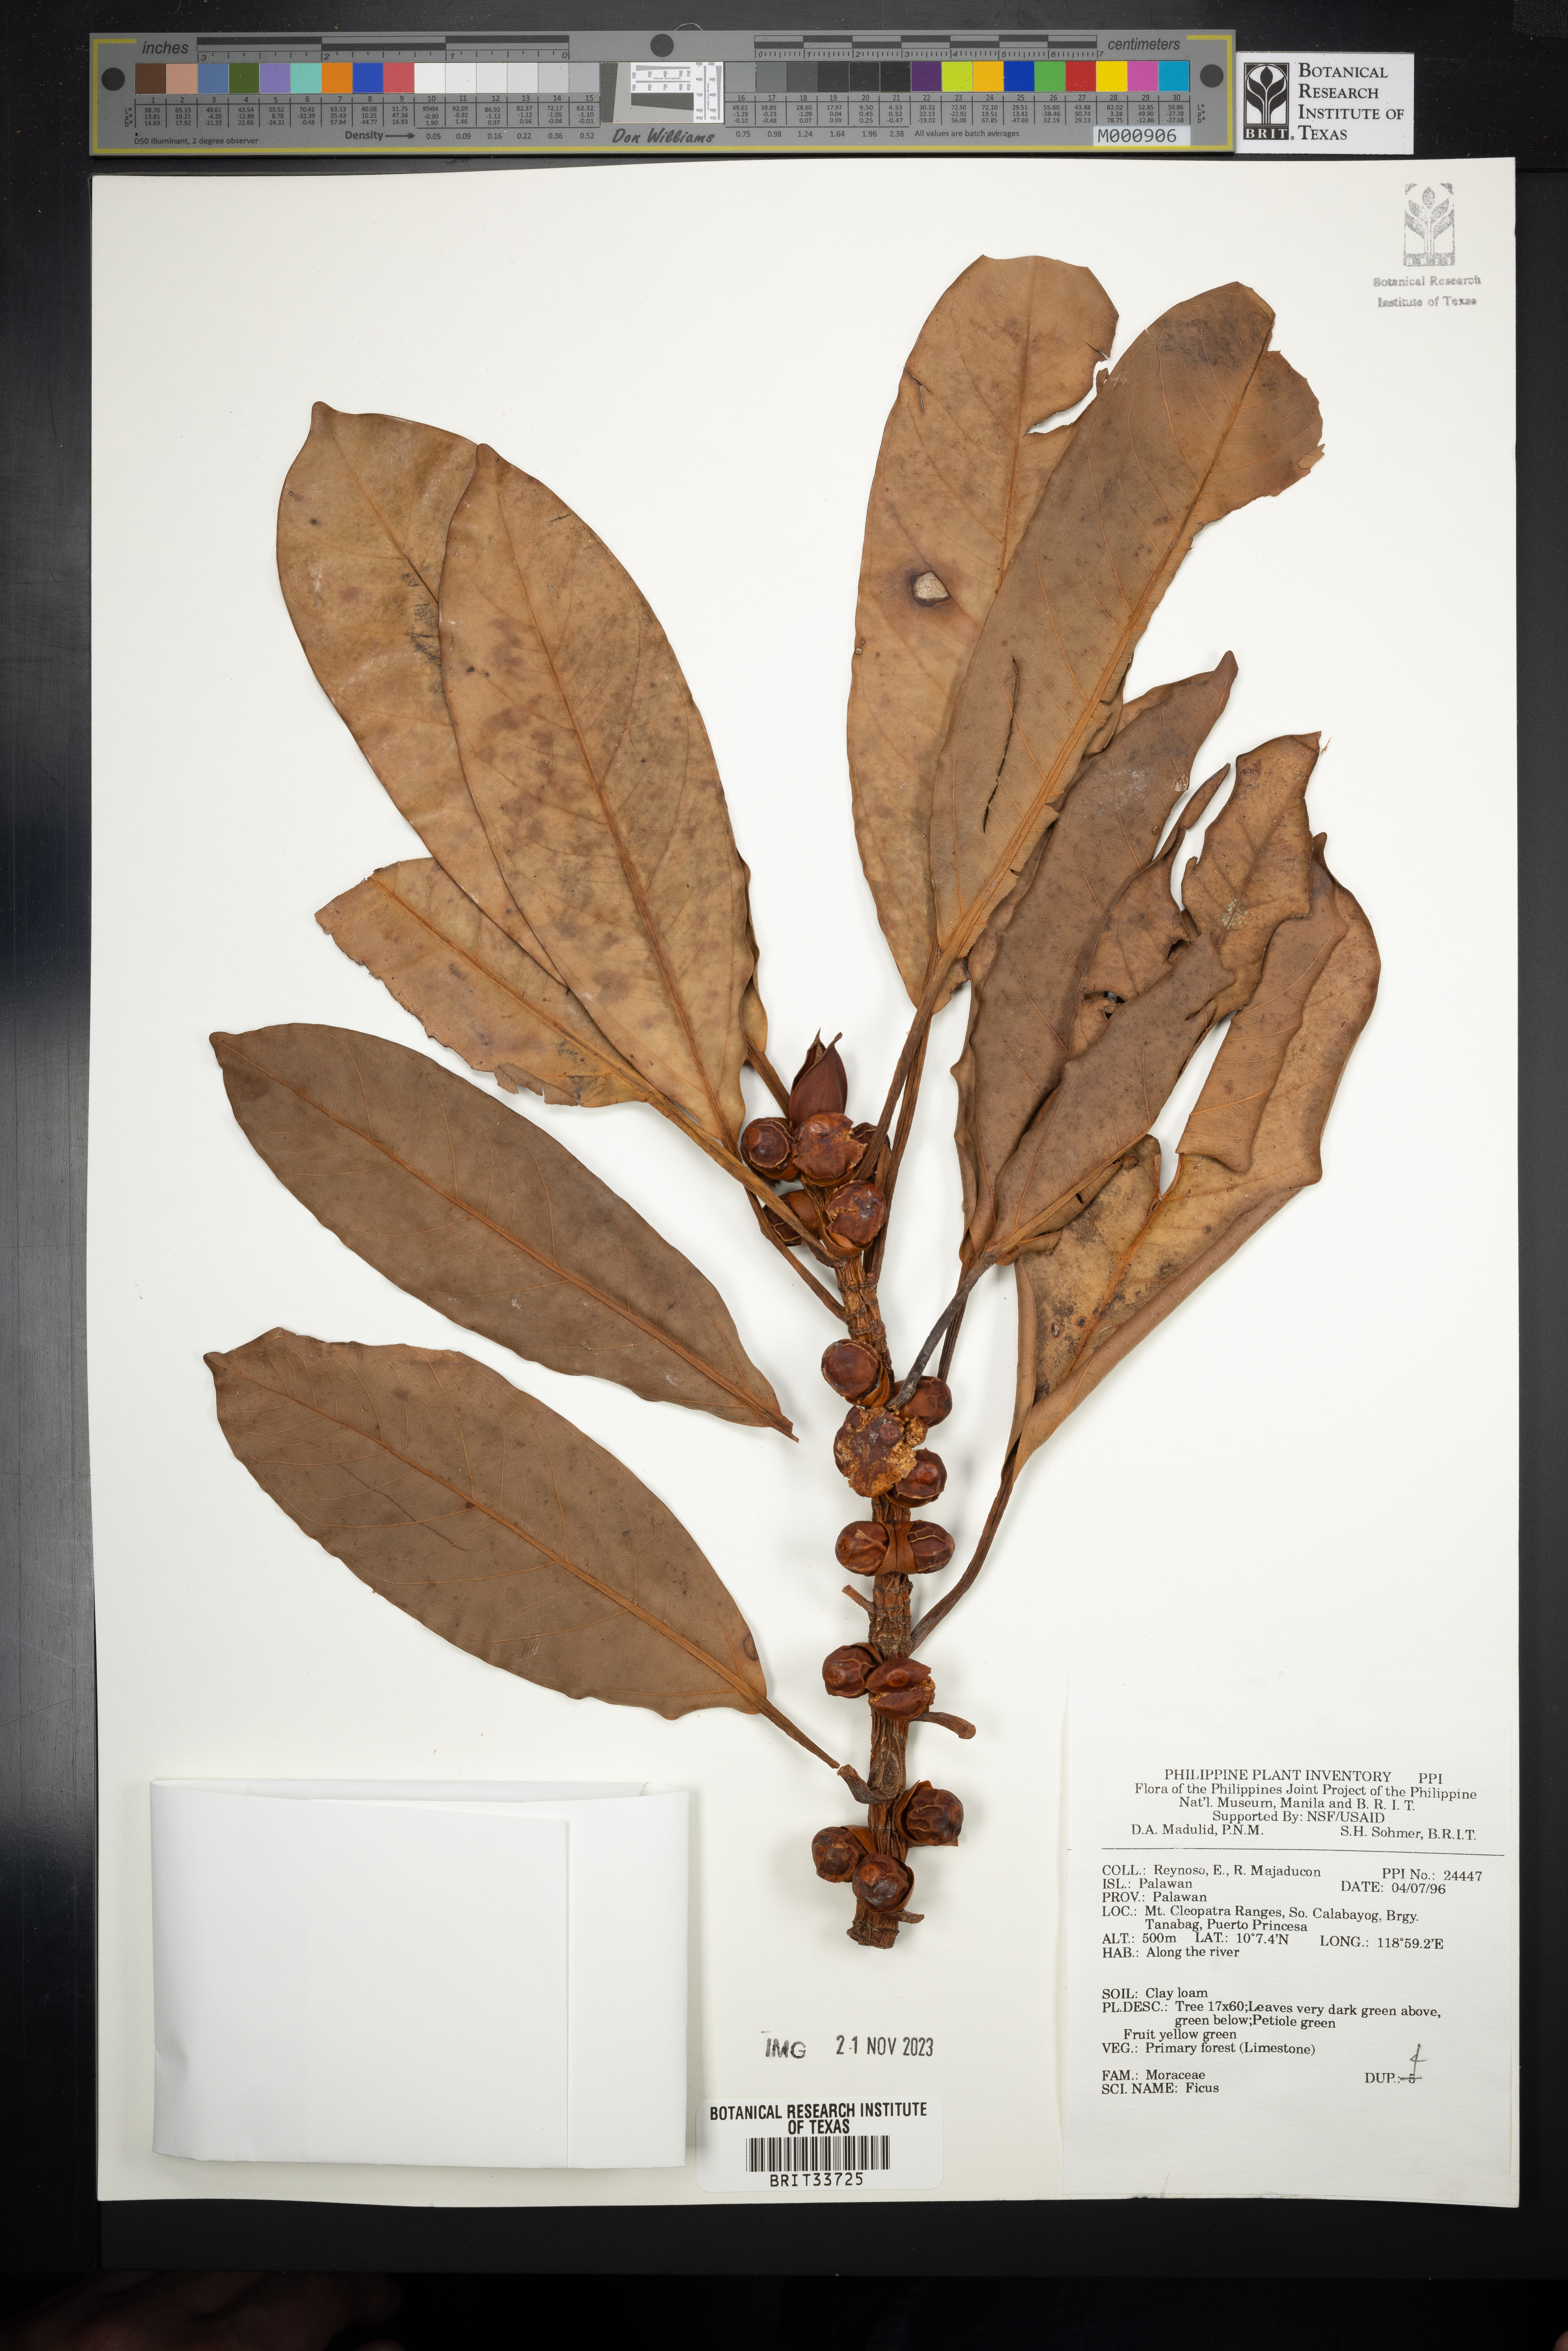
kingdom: Plantae
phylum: Tracheophyta
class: Magnoliopsida
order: Rosales
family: Moraceae
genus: Ficus
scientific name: Ficus
